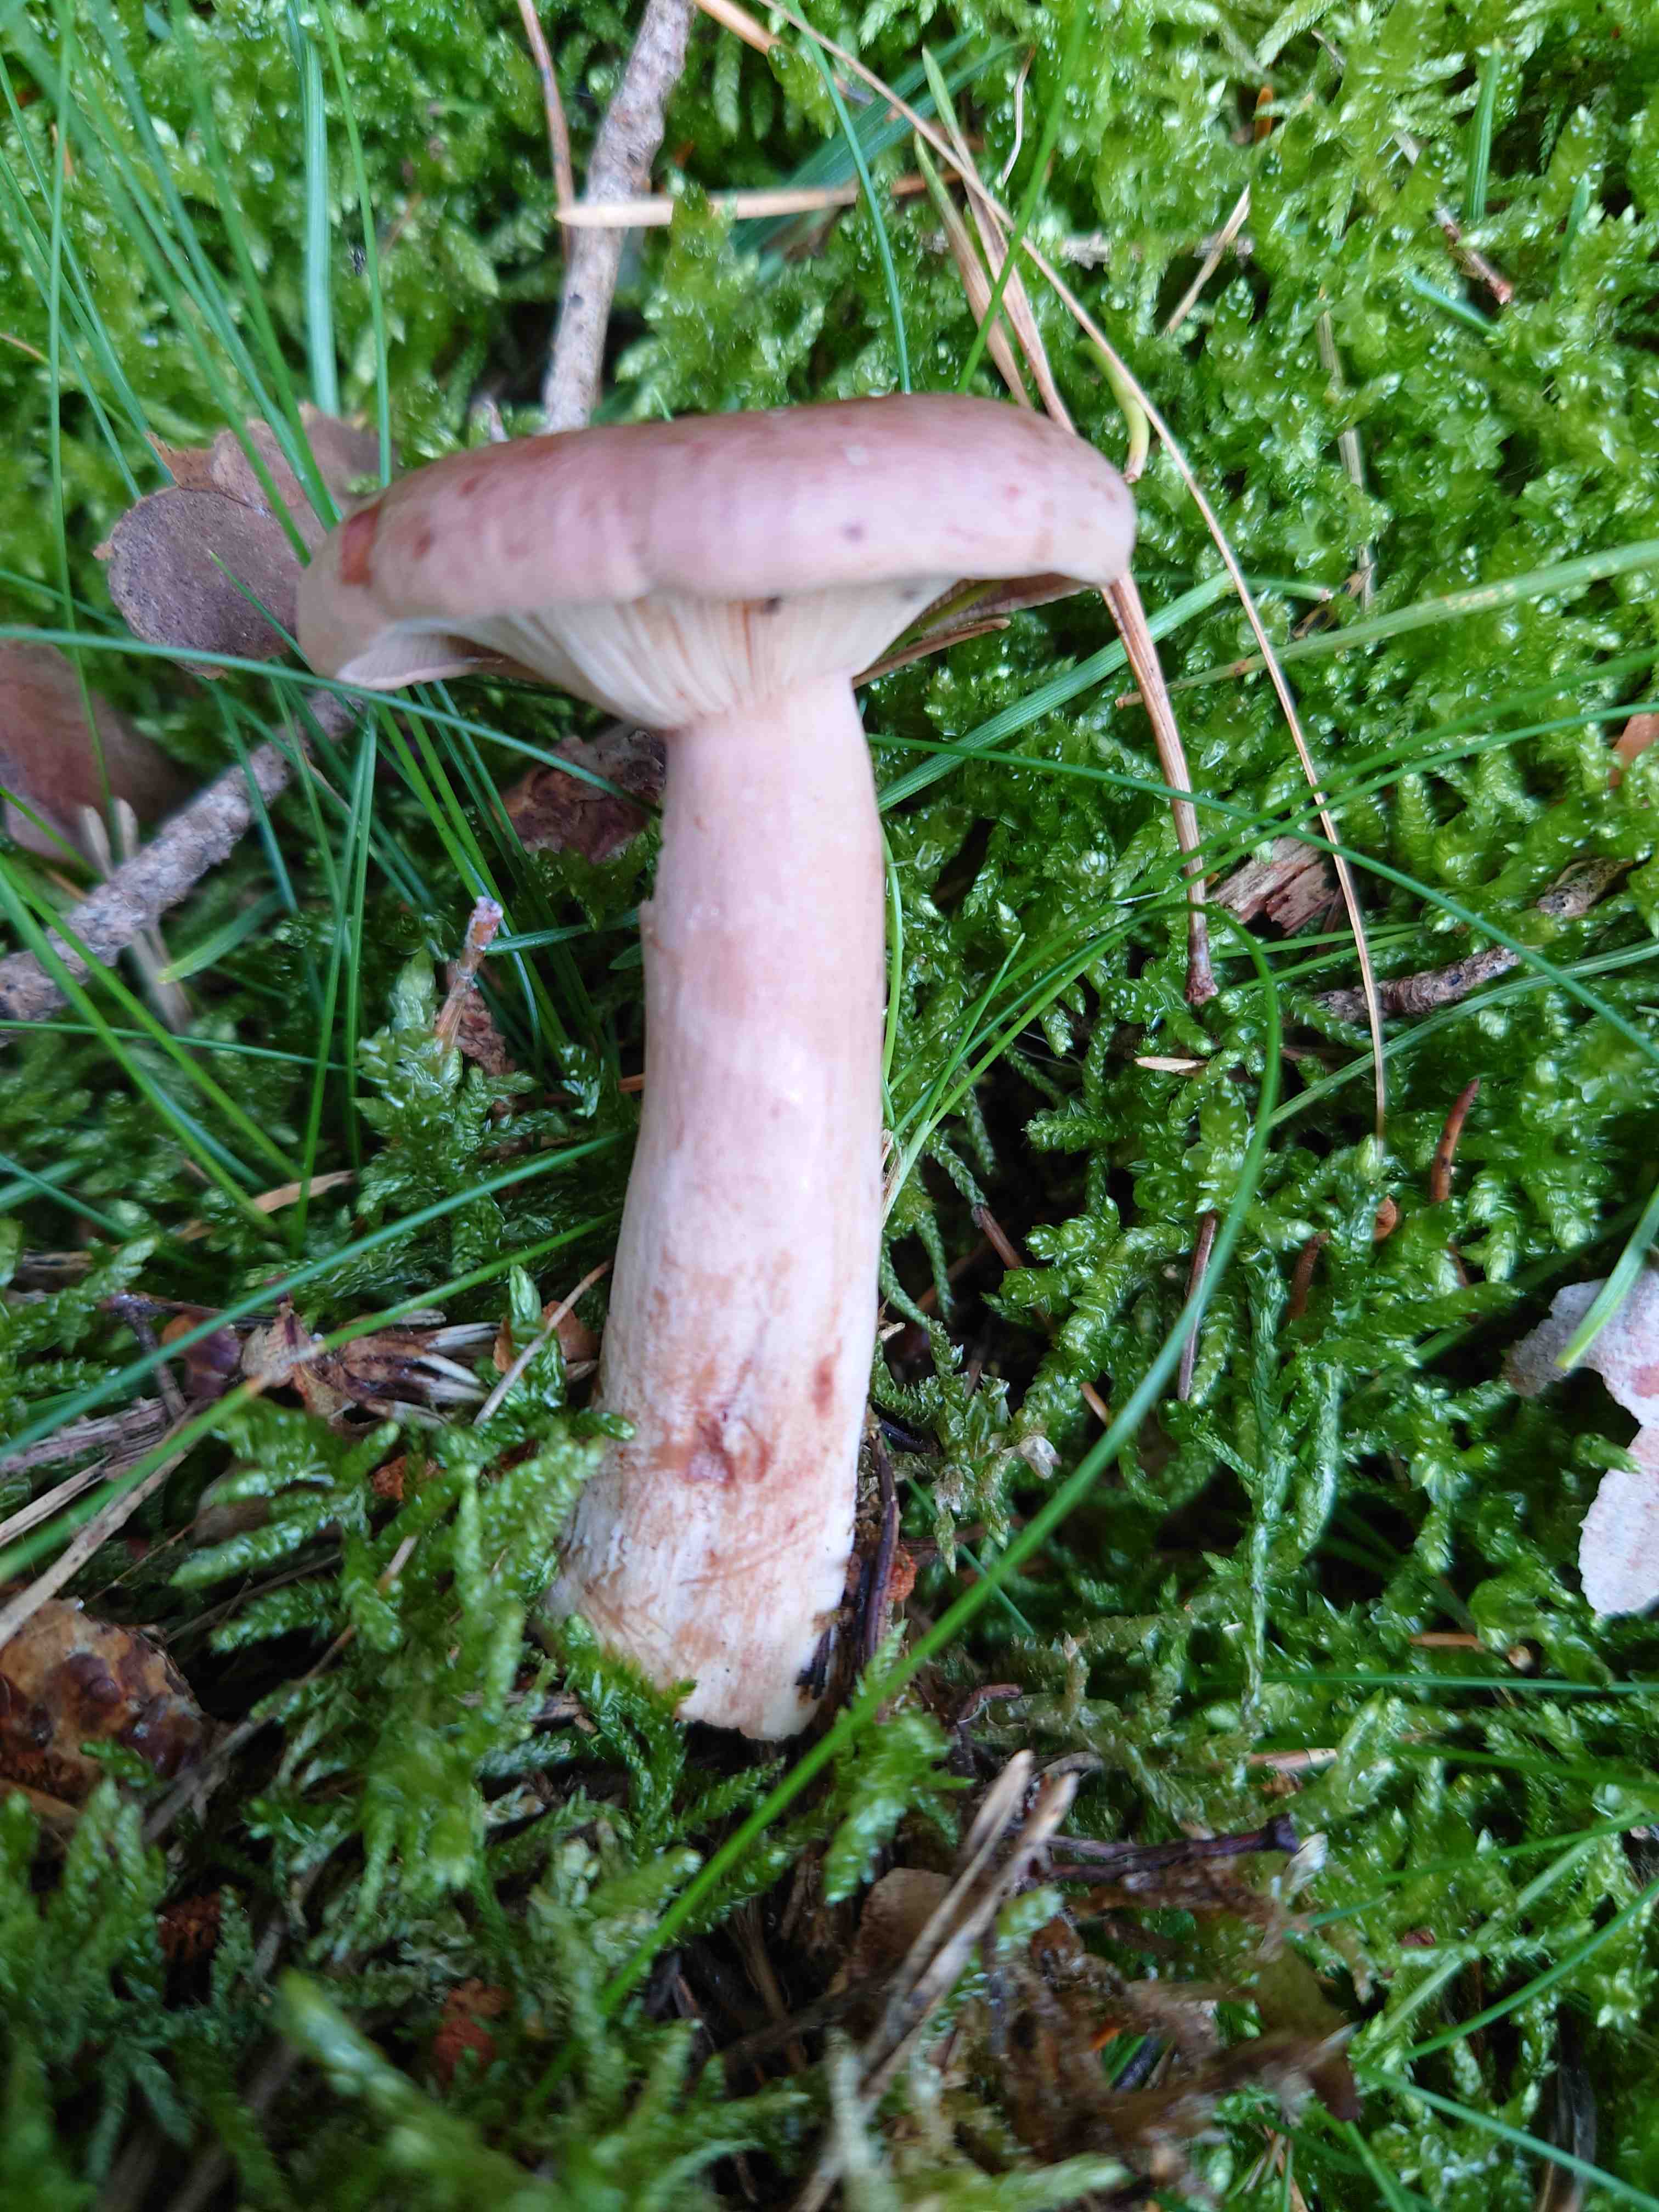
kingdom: Fungi
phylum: Basidiomycota
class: Agaricomycetes
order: Russulales
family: Russulaceae
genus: Lactarius
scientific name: Lactarius rufus
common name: rødbrun mælkehat
